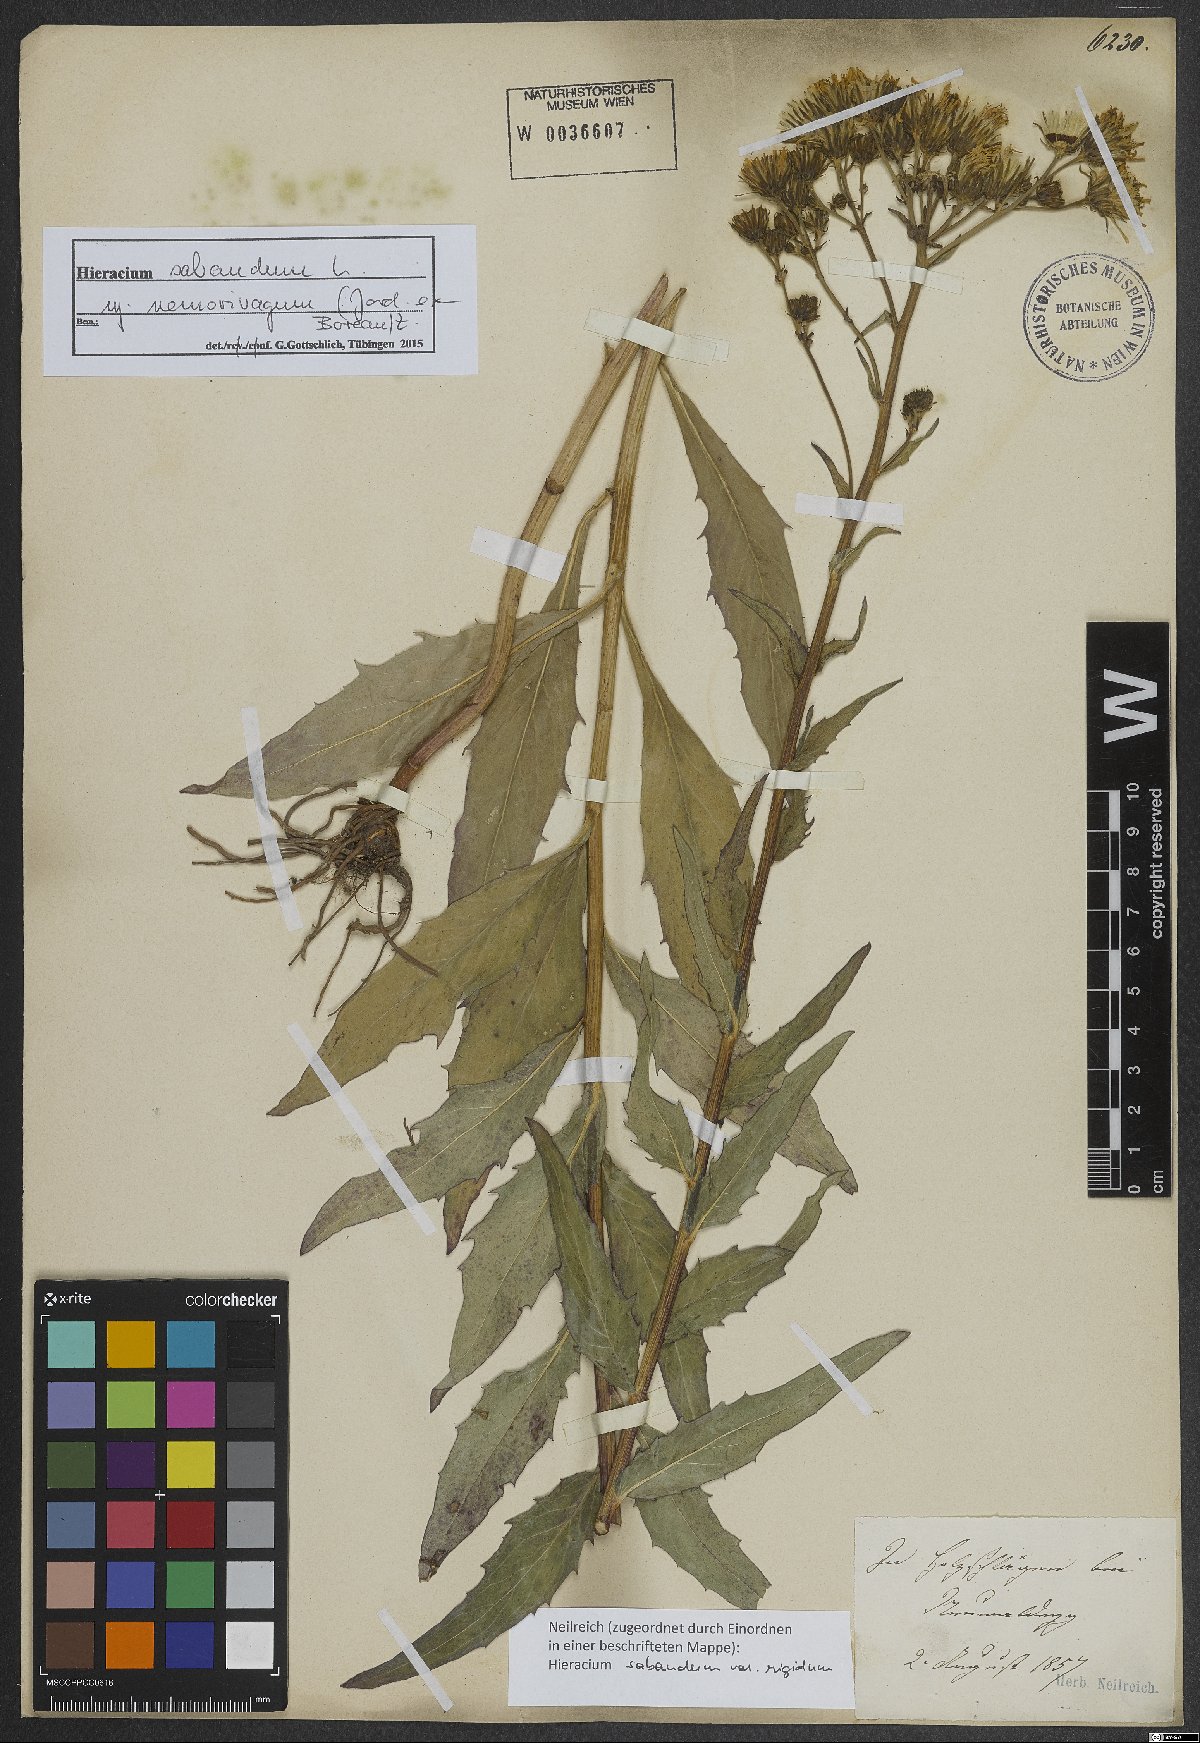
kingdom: Plantae
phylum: Tracheophyta
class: Magnoliopsida
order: Asterales
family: Asteraceae
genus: Hieracium
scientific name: Hieracium sabaudum
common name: New england hawkweed
